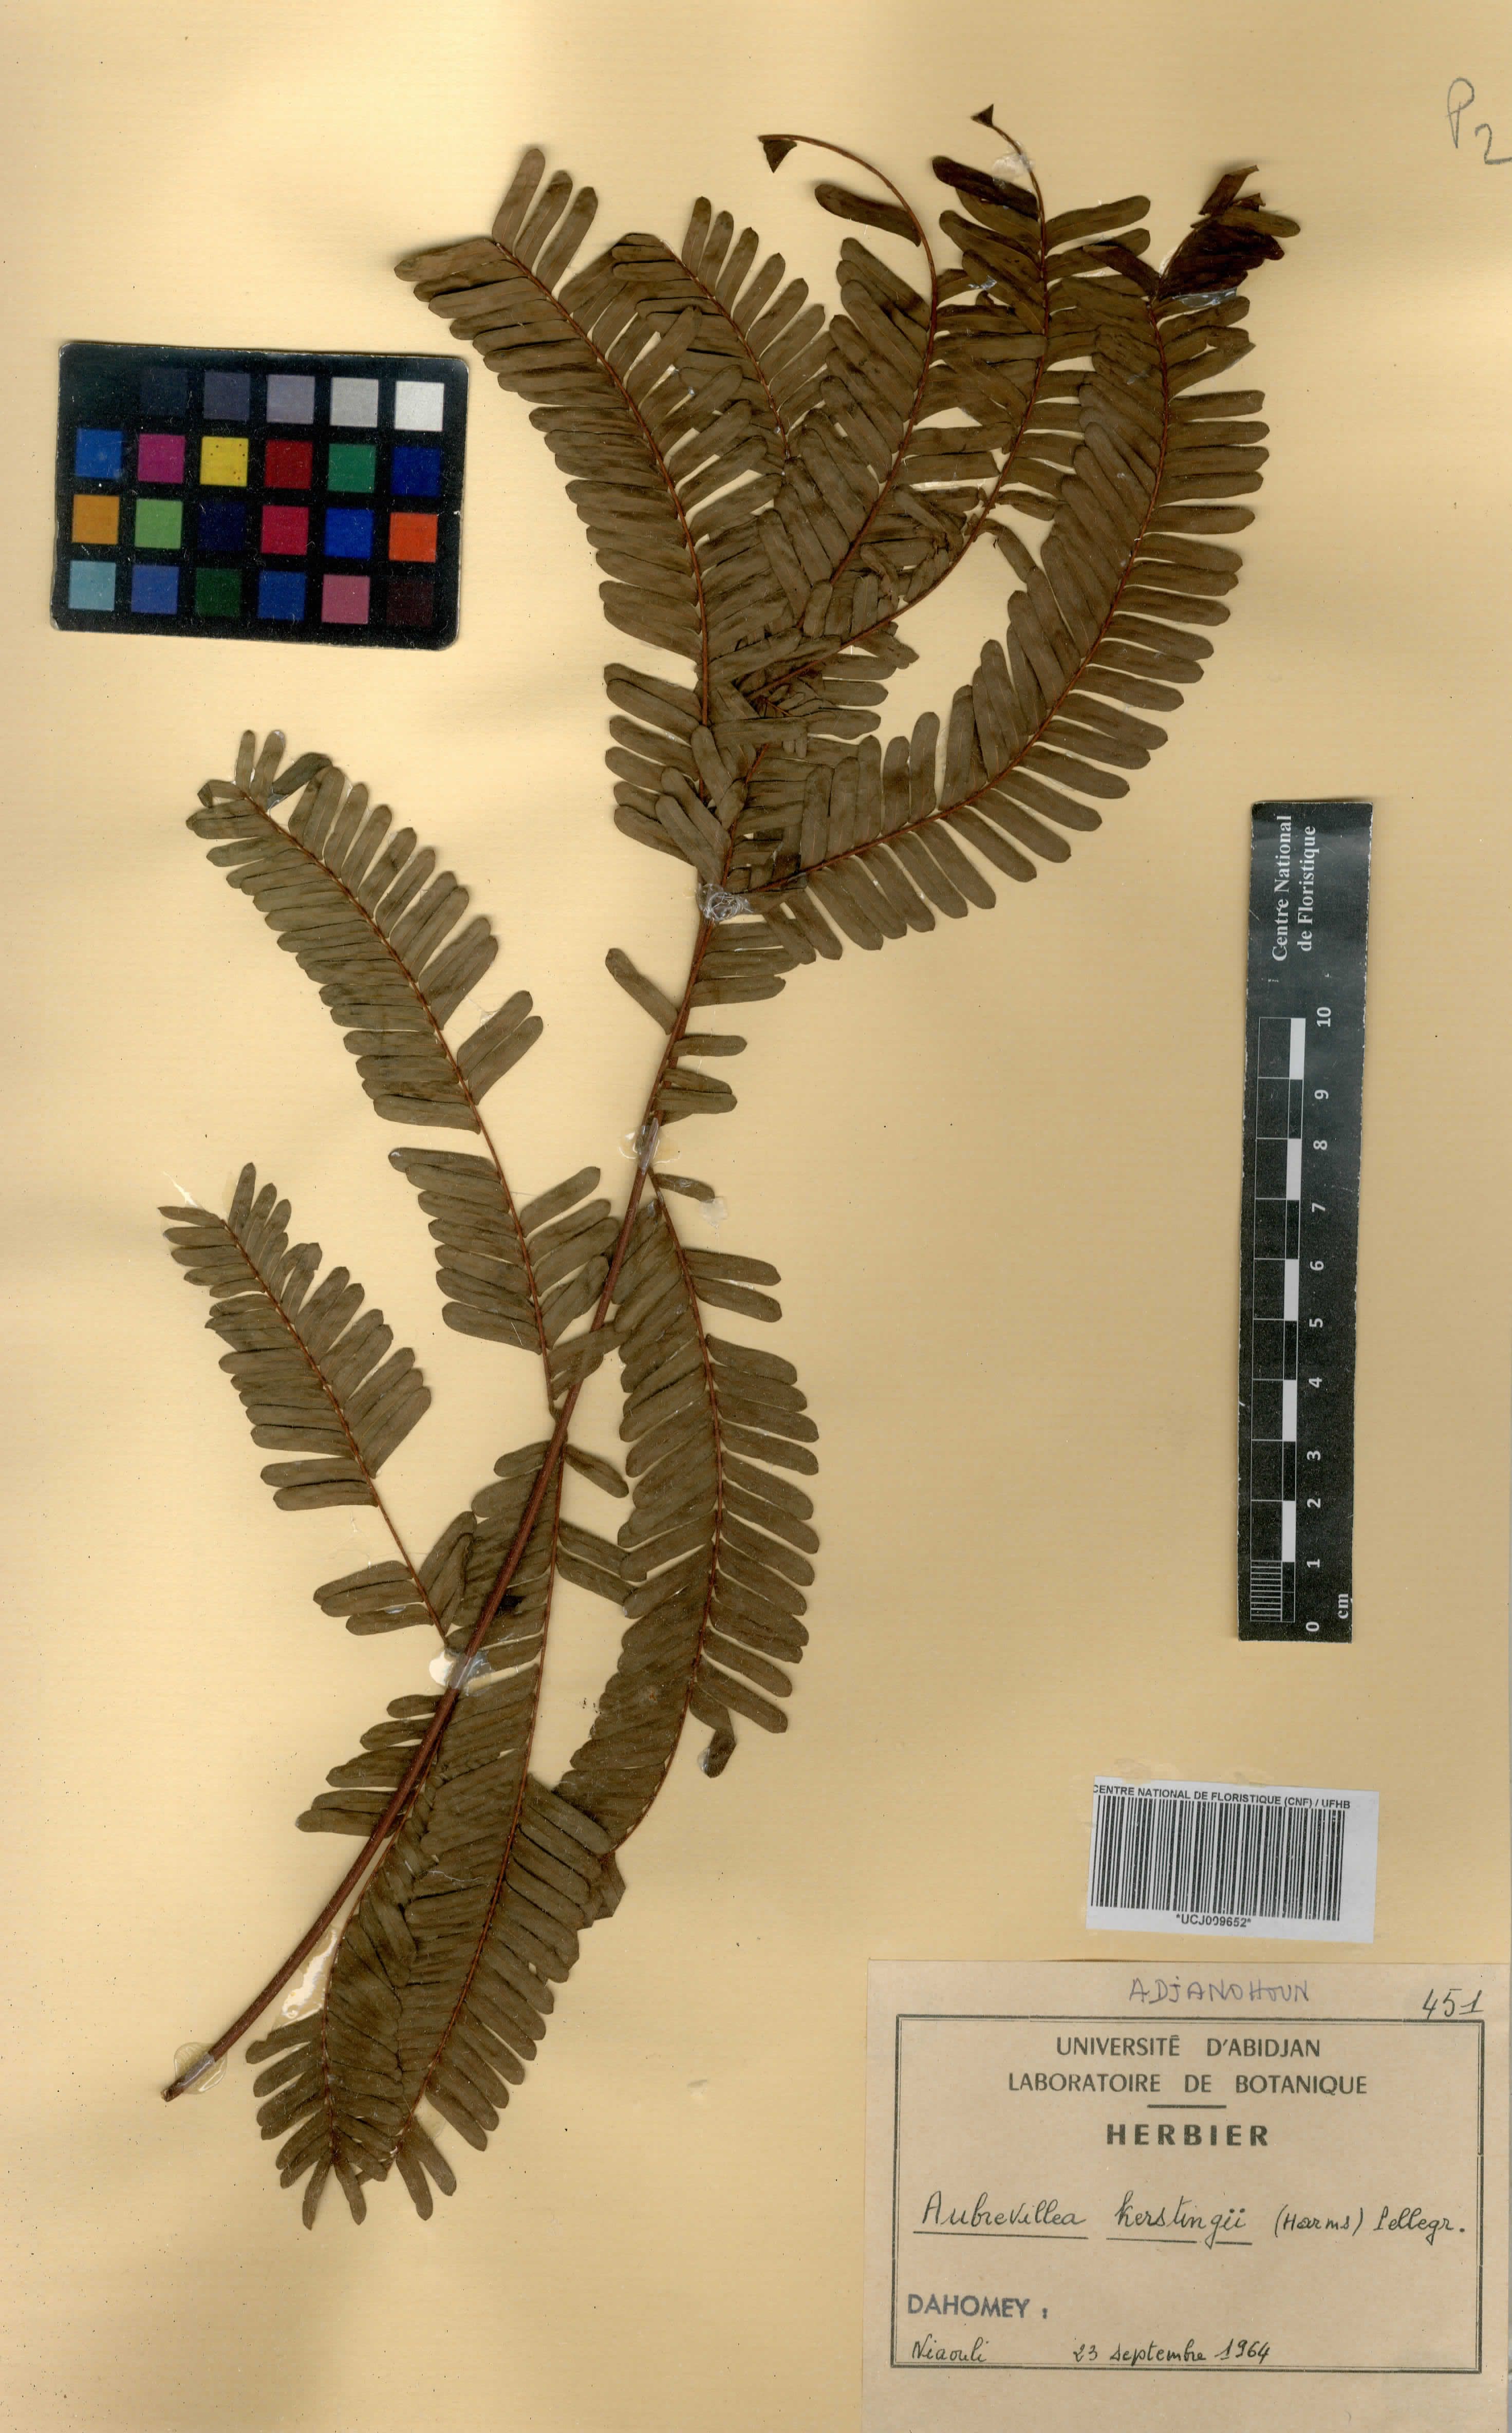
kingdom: Plantae
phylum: Tracheophyta
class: Magnoliopsida
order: Fabales
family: Fabaceae
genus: Aubrevillea
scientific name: Aubrevillea kerstingii
